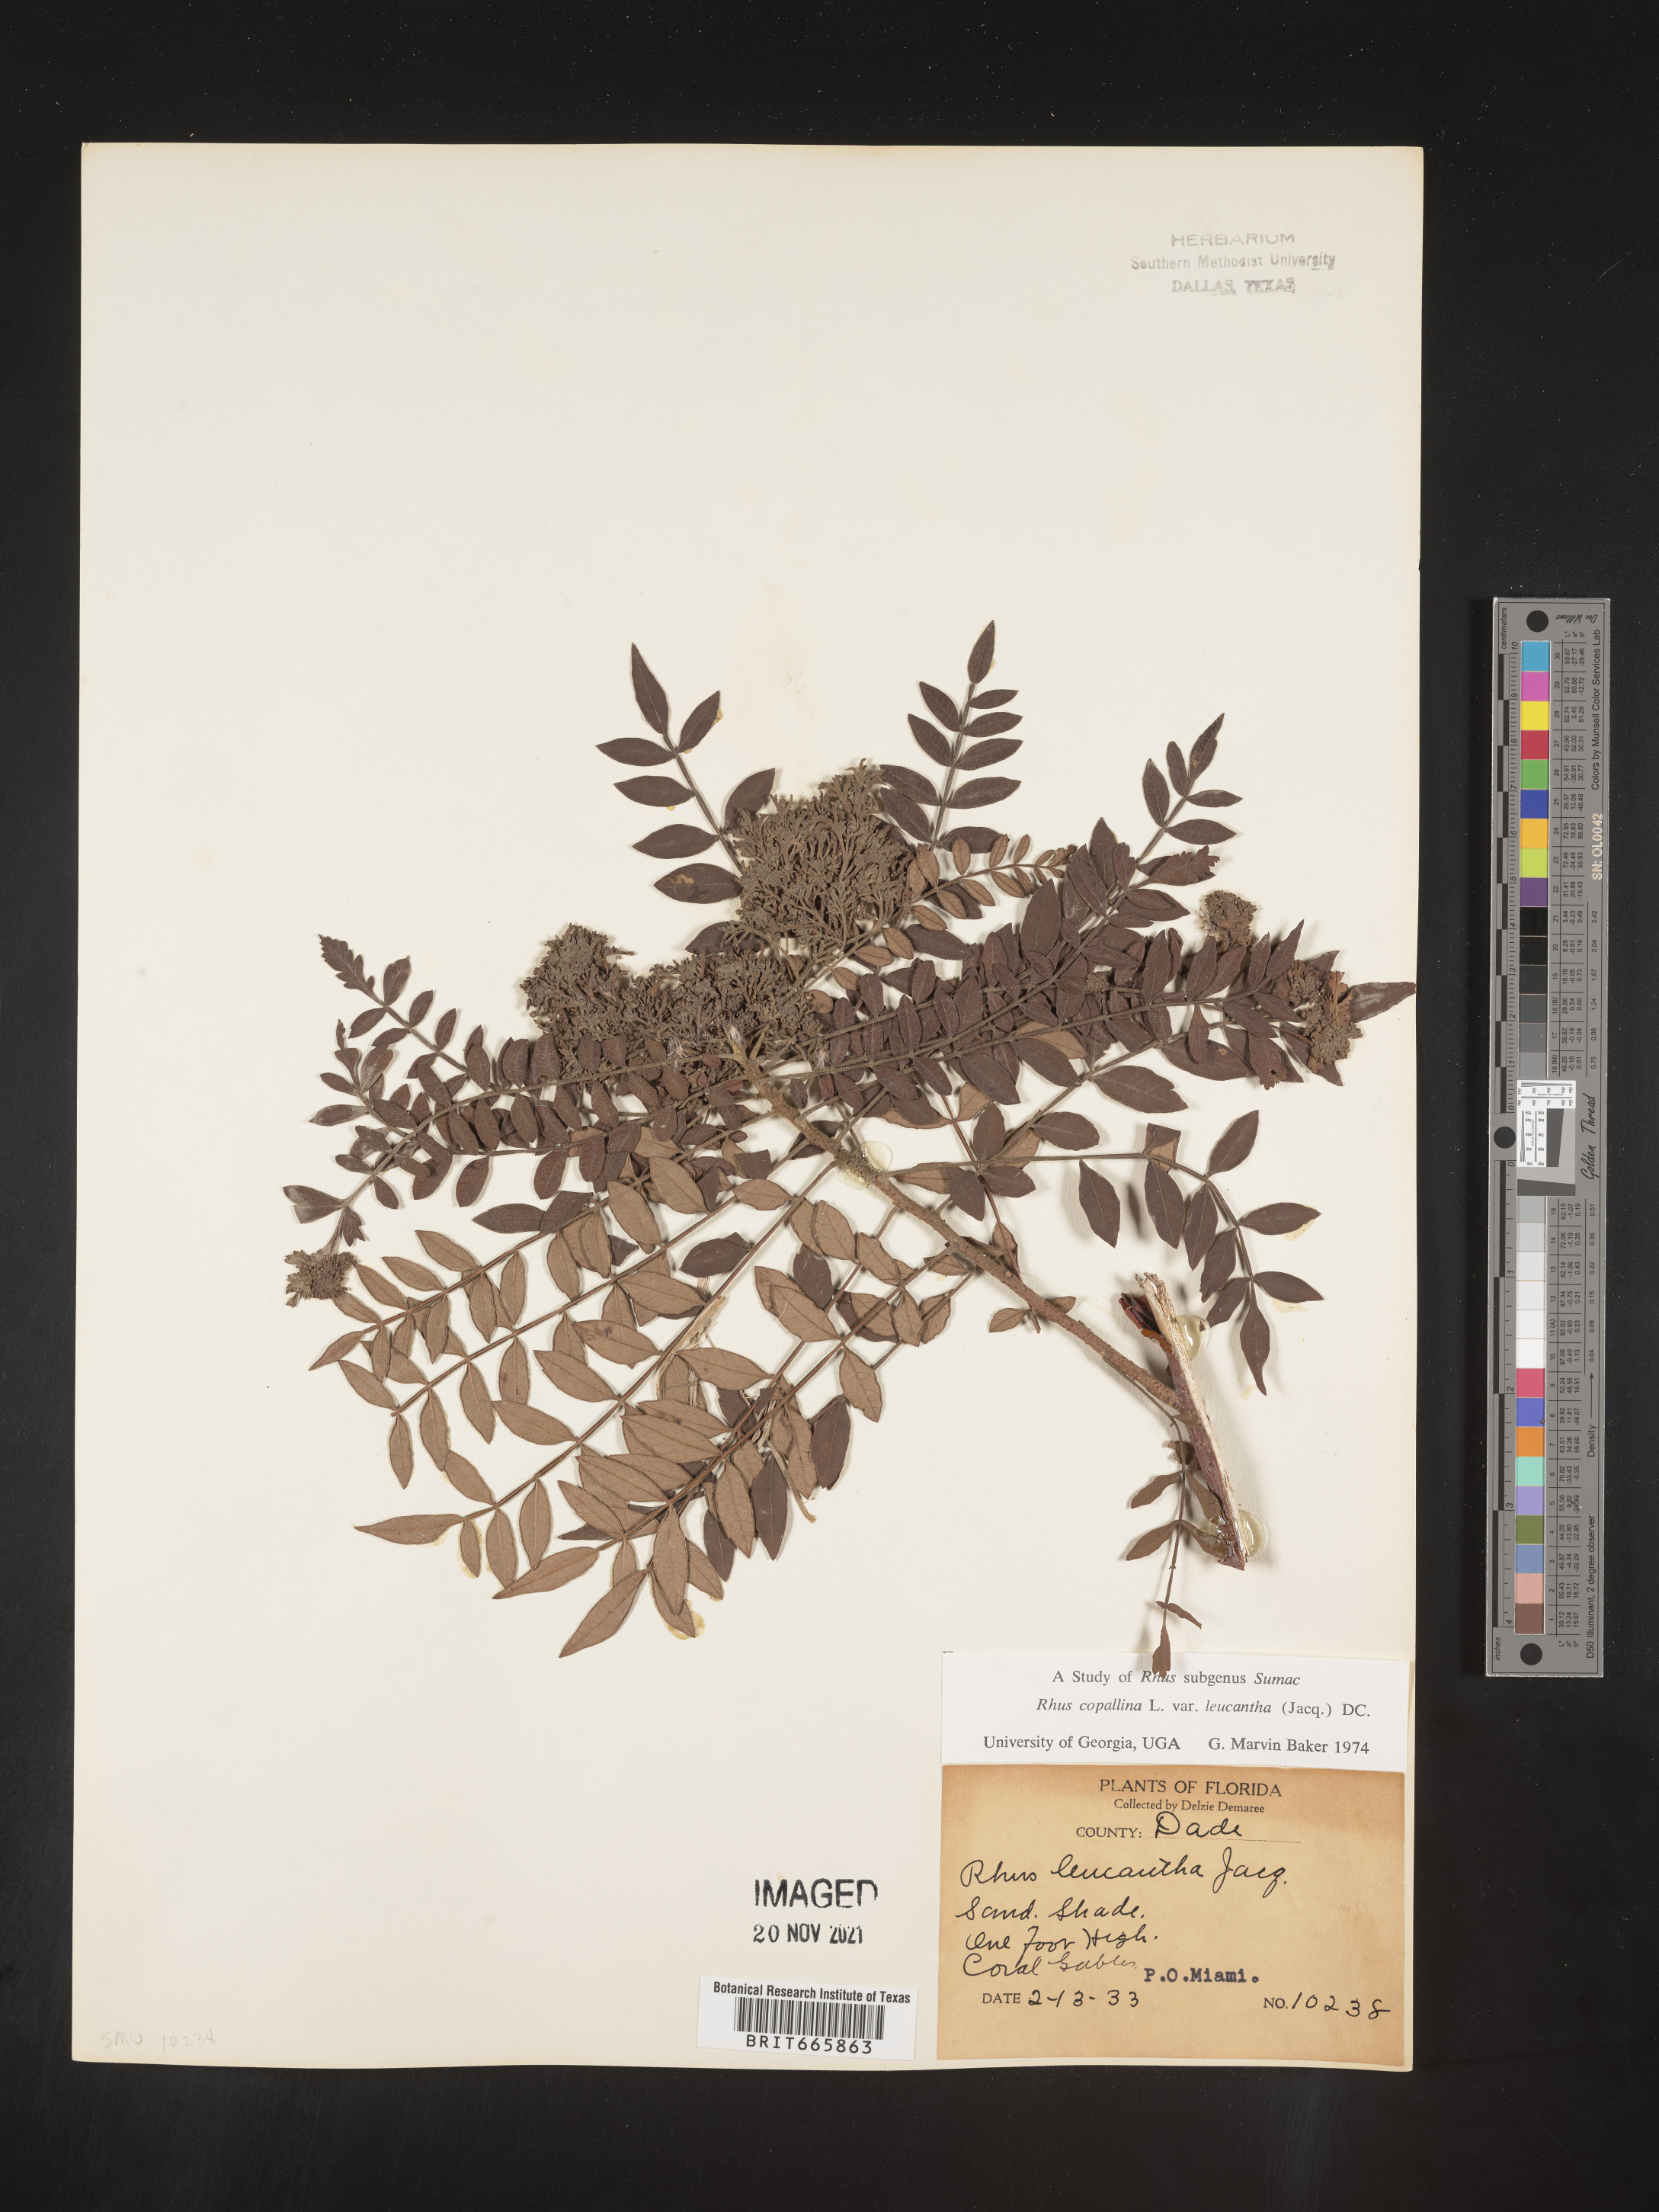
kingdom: Plantae
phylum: Tracheophyta
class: Magnoliopsida
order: Sapindales
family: Anacardiaceae
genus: Rhus
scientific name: Rhus copallina
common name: Shining sumac
